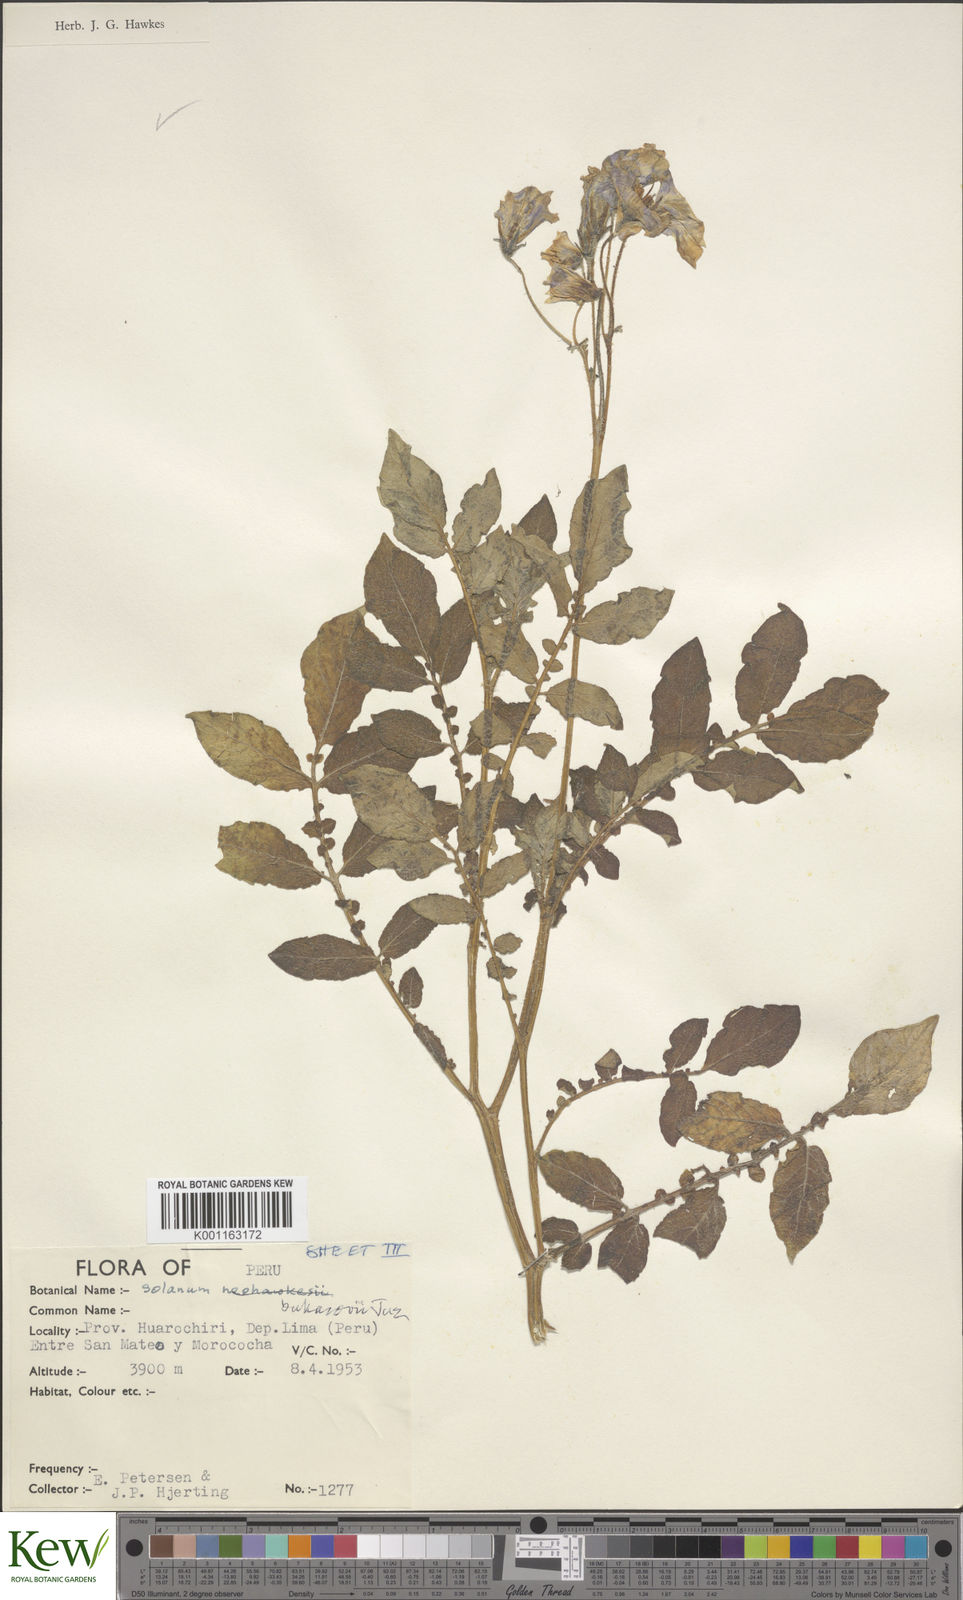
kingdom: Plantae
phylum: Tracheophyta
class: Magnoliopsida
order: Solanales
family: Solanaceae
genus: Solanum
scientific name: Solanum candolleanum
